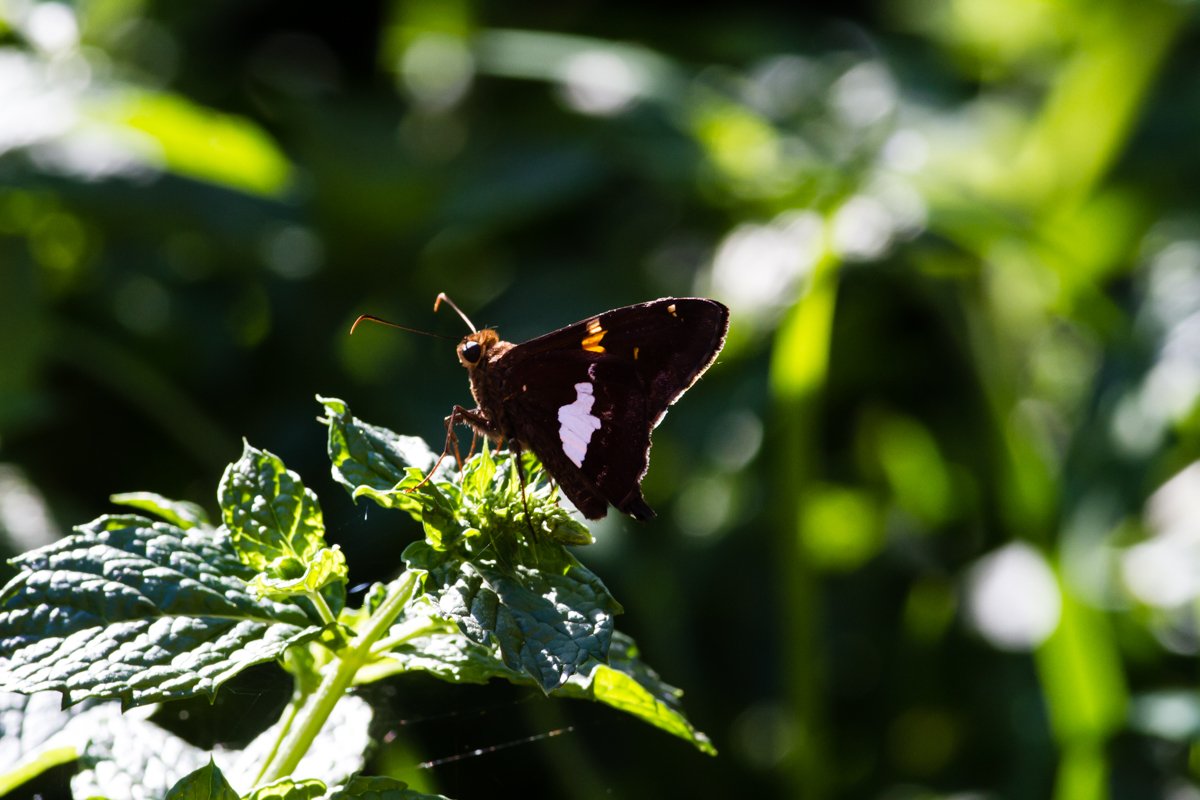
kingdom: Animalia
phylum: Arthropoda
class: Insecta
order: Lepidoptera
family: Hesperiidae
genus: Epargyreus
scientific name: Epargyreus clarus
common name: Silver-spotted Skipper
